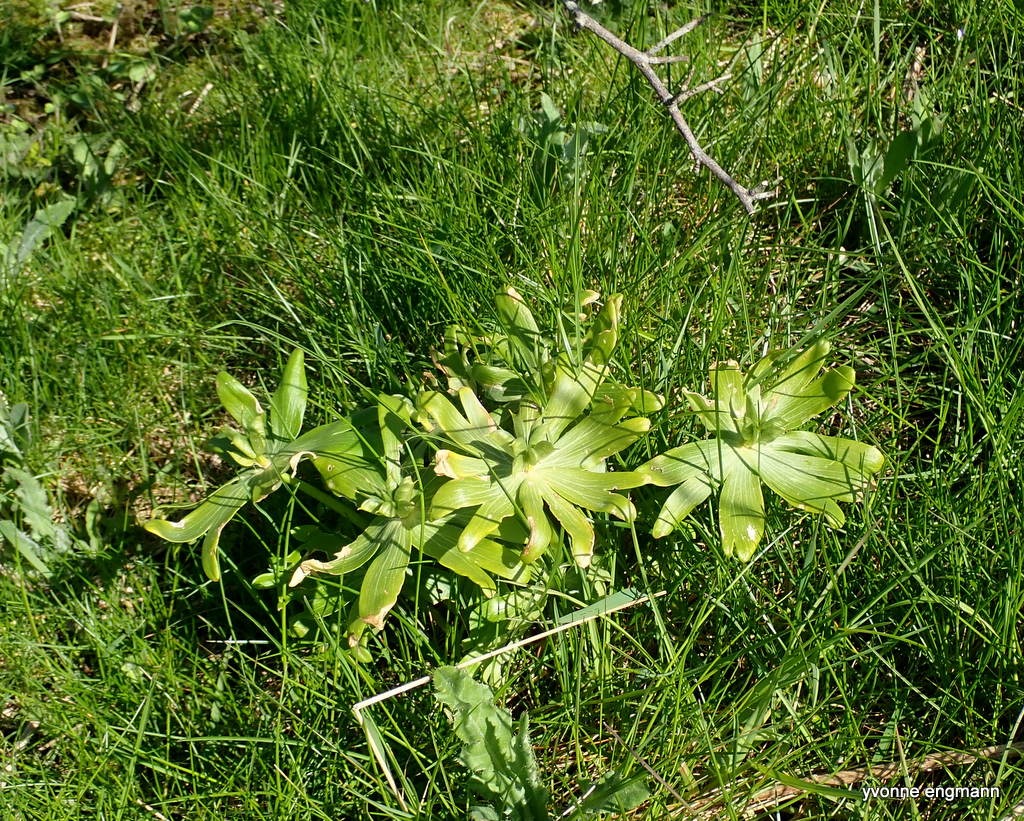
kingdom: Plantae
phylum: Tracheophyta
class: Magnoliopsida
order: Ranunculales
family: Ranunculaceae
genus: Eranthis
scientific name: Eranthis hyemalis
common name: Erantis
